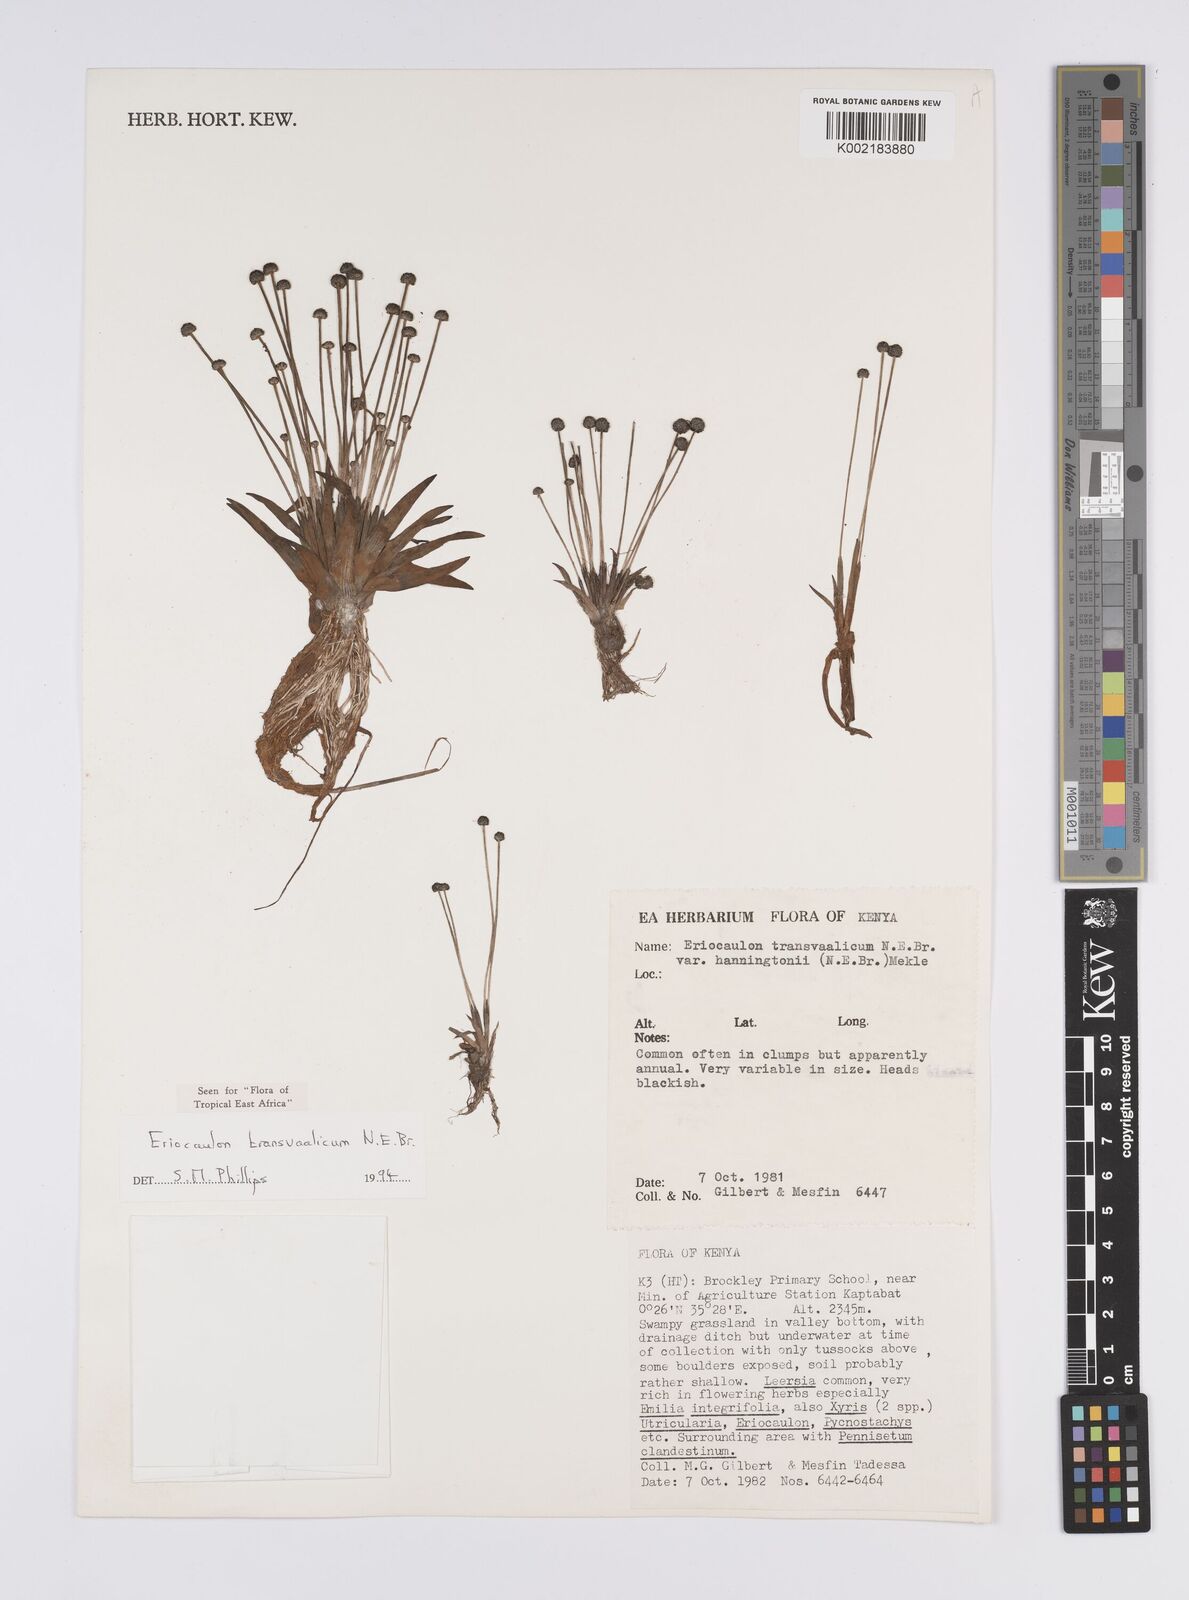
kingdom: Plantae
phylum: Tracheophyta
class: Liliopsida
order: Poales
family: Eriocaulaceae
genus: Eriocaulon
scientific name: Eriocaulon transvaalicum
